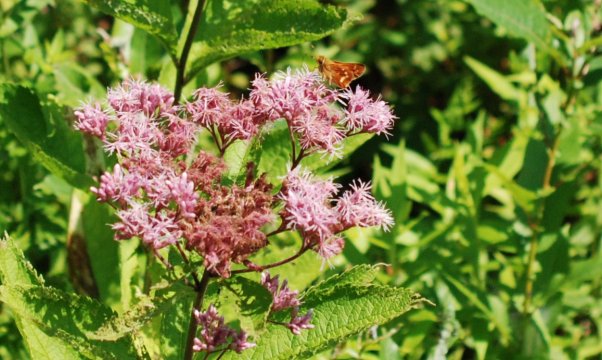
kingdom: Animalia
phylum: Arthropoda
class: Insecta
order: Lepidoptera
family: Hesperiidae
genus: Hesperia
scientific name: Hesperia leonardus
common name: Leonard's Skipper
